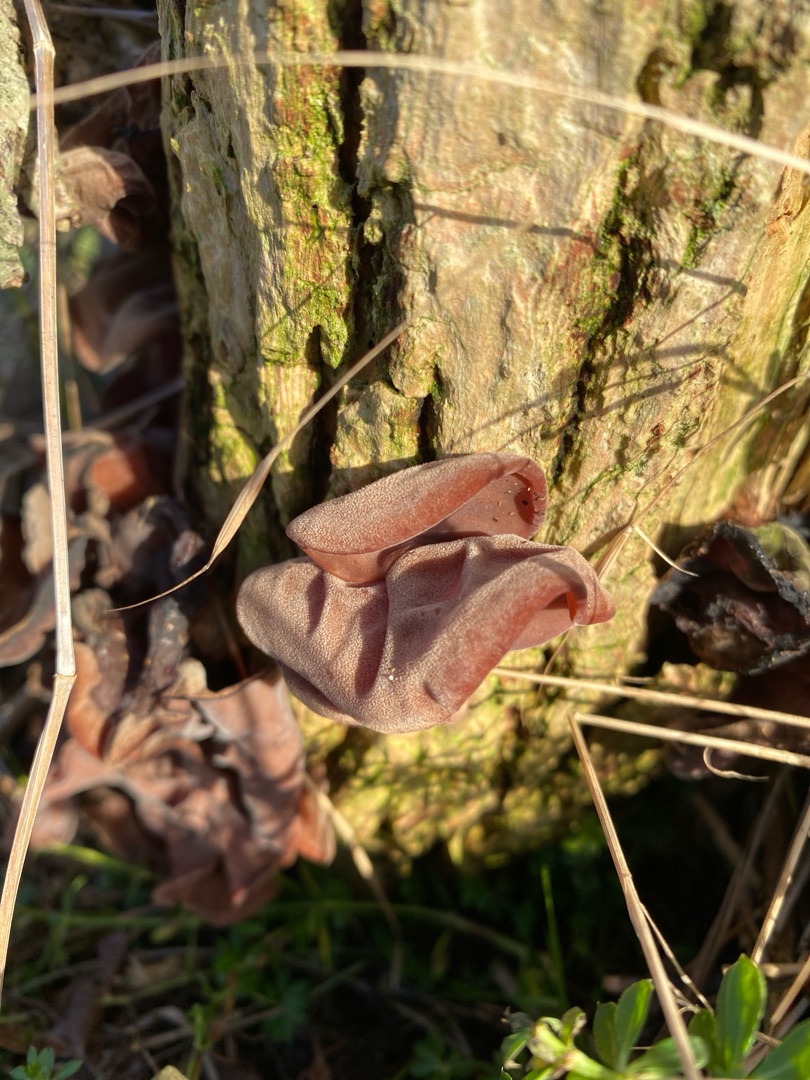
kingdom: Fungi
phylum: Basidiomycota
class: Agaricomycetes
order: Auriculariales
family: Auriculariaceae
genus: Auricularia
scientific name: Auricularia auricula-judae
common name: Almindelig judasøre
